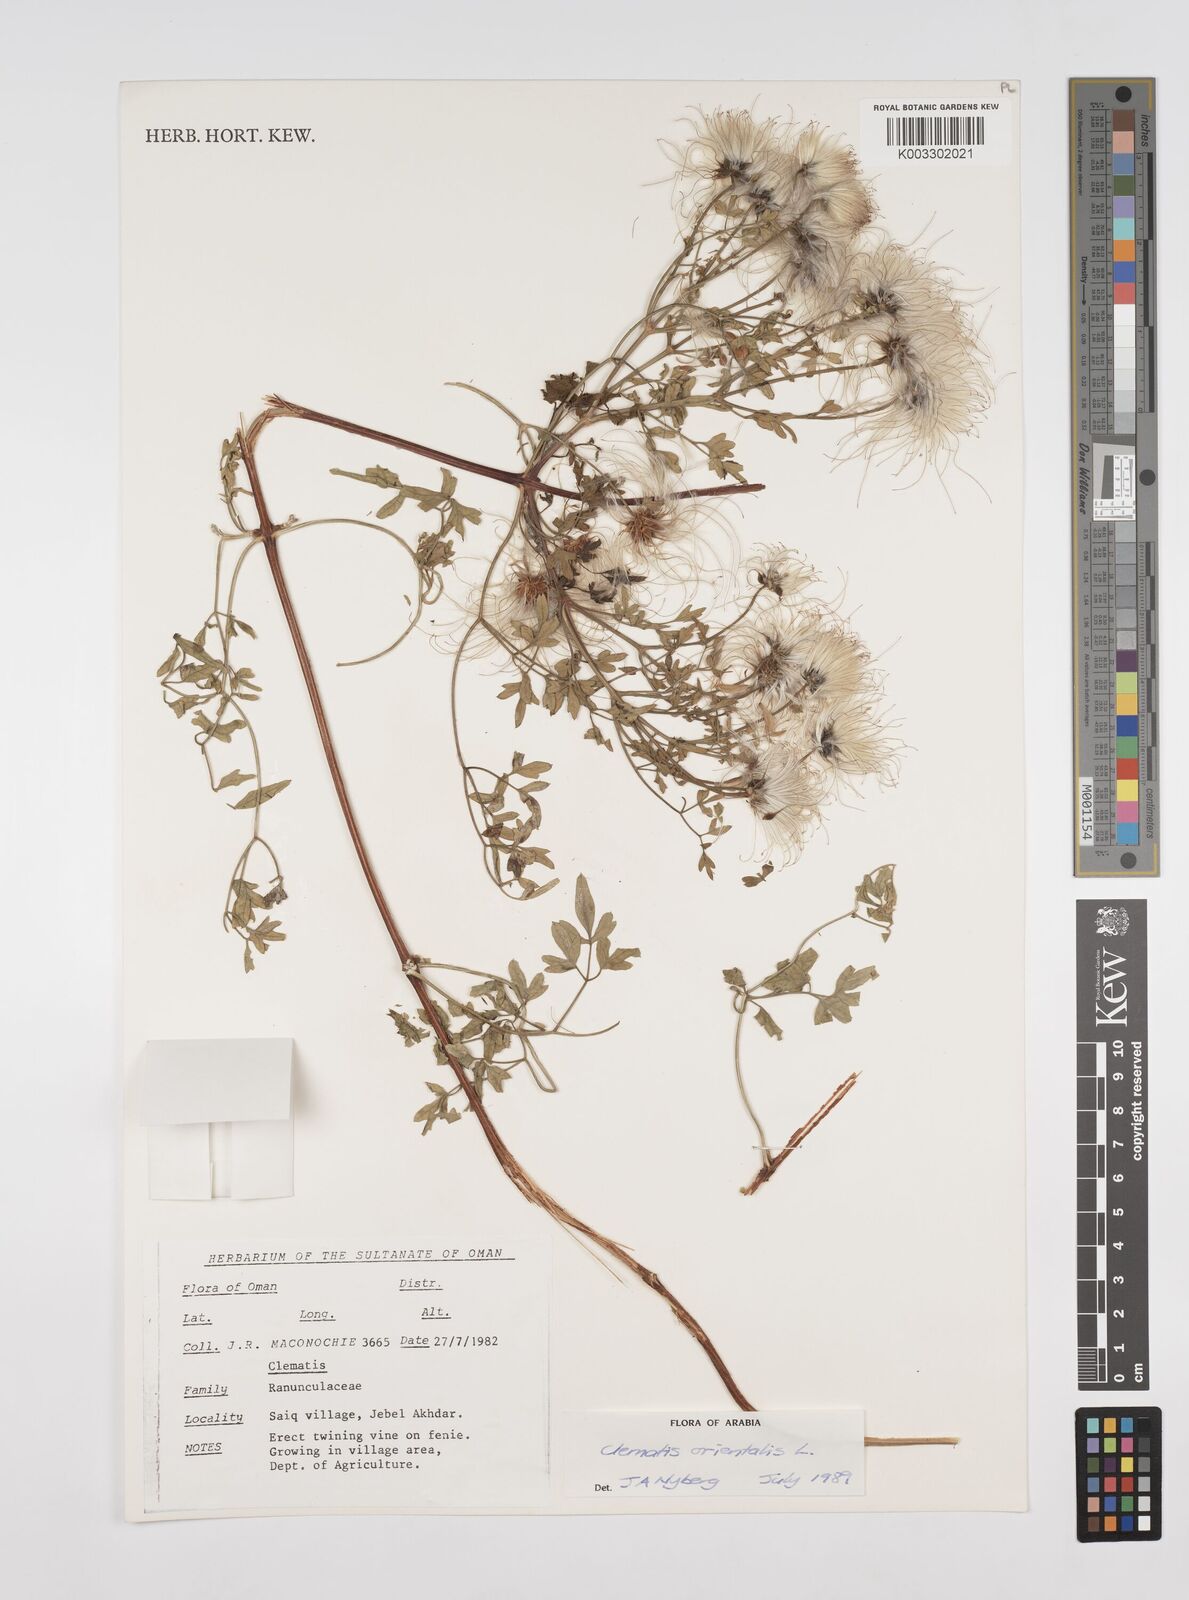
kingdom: Plantae
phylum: Tracheophyta
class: Magnoliopsida
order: Ranunculales
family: Ranunculaceae
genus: Clematis
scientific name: Clematis orientalis
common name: Oriental virgin's-bower
